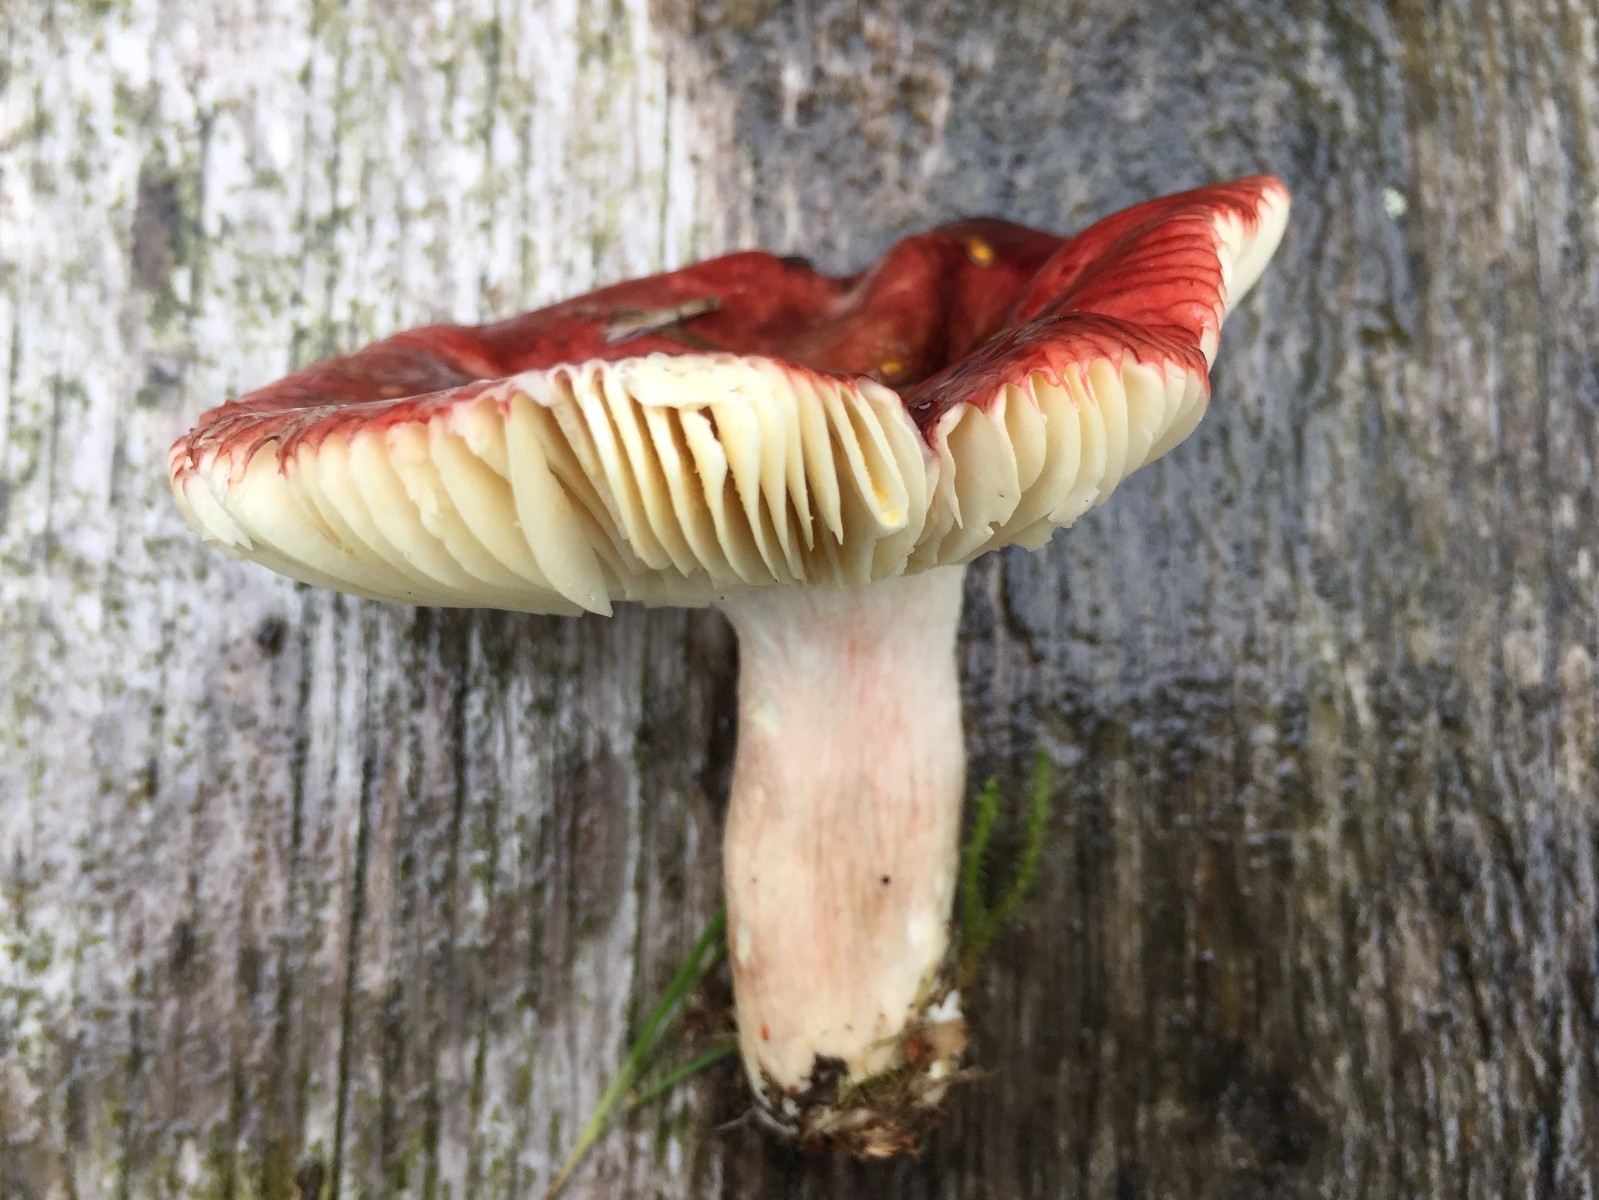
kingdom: Fungi
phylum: Basidiomycota
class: Agaricomycetes
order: Russulales
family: Russulaceae
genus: Russula
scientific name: Russula nitida
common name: året skørhat
